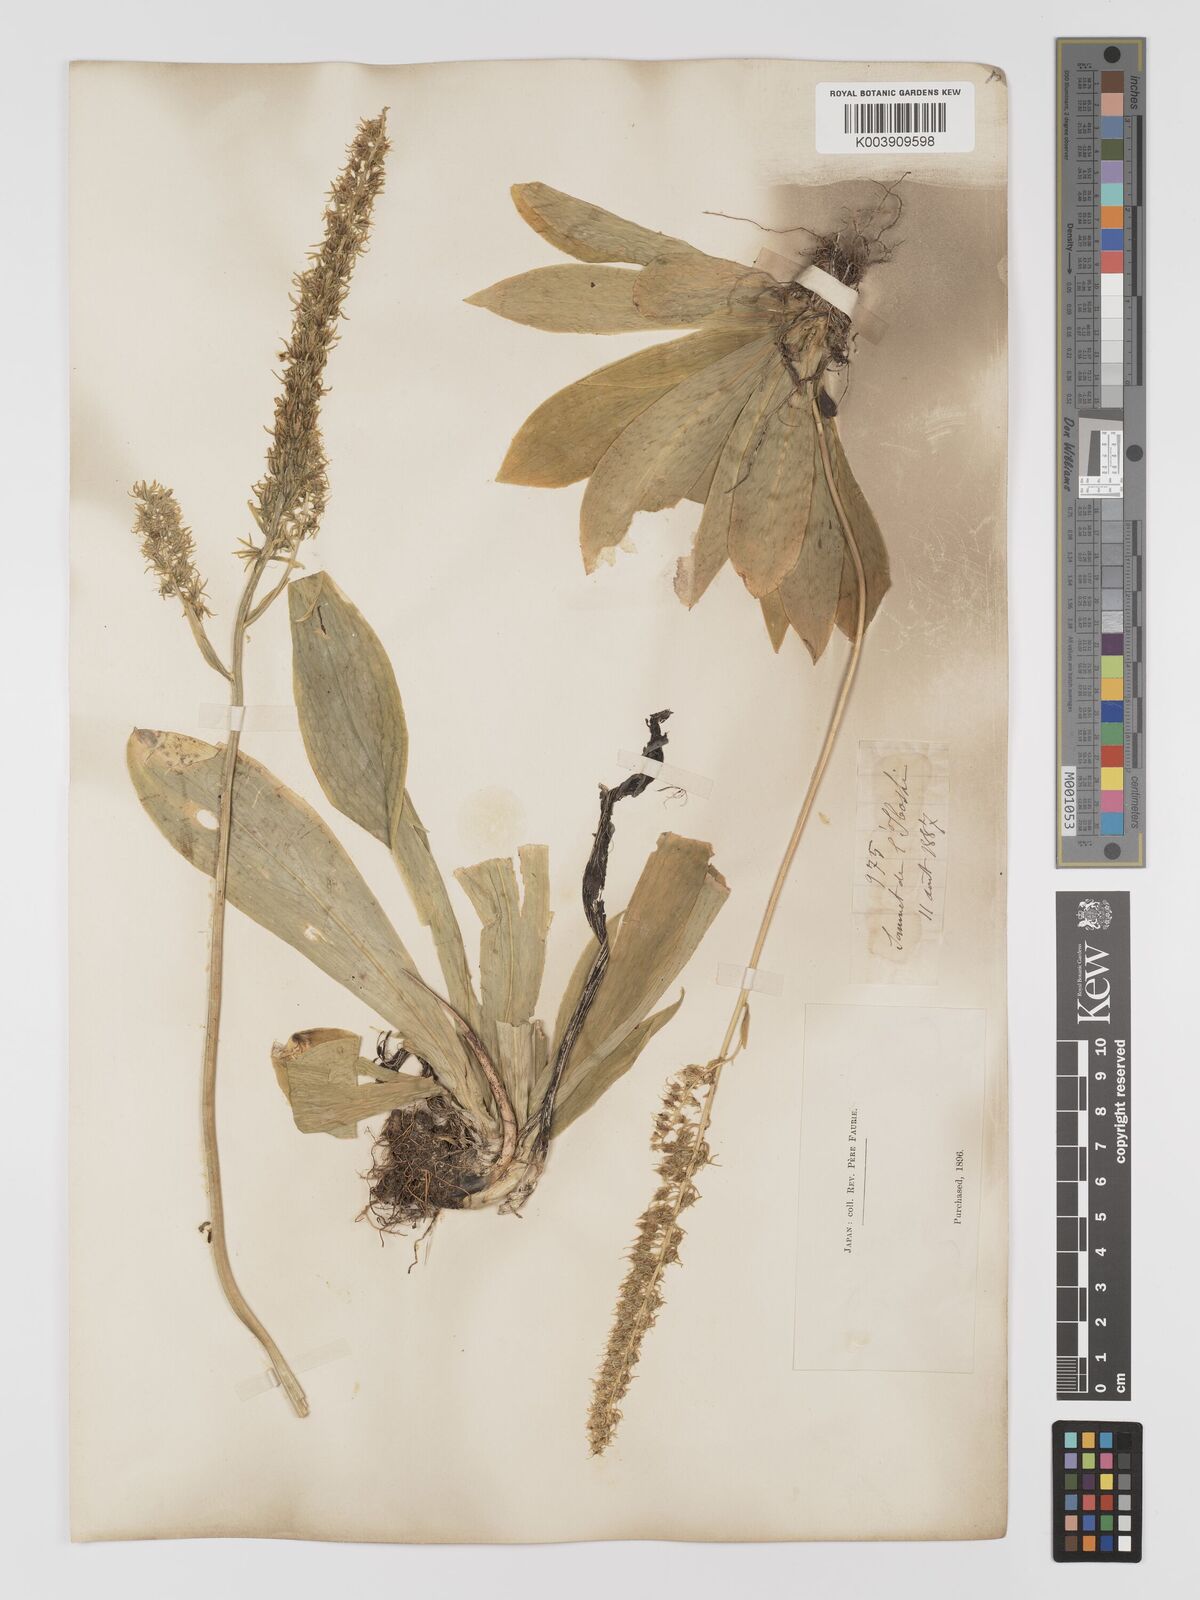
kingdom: Plantae
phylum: Tracheophyta
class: Liliopsida
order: Dioscoreales
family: Nartheciaceae
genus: Metanarthecium
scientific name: Metanarthecium luteoviride
